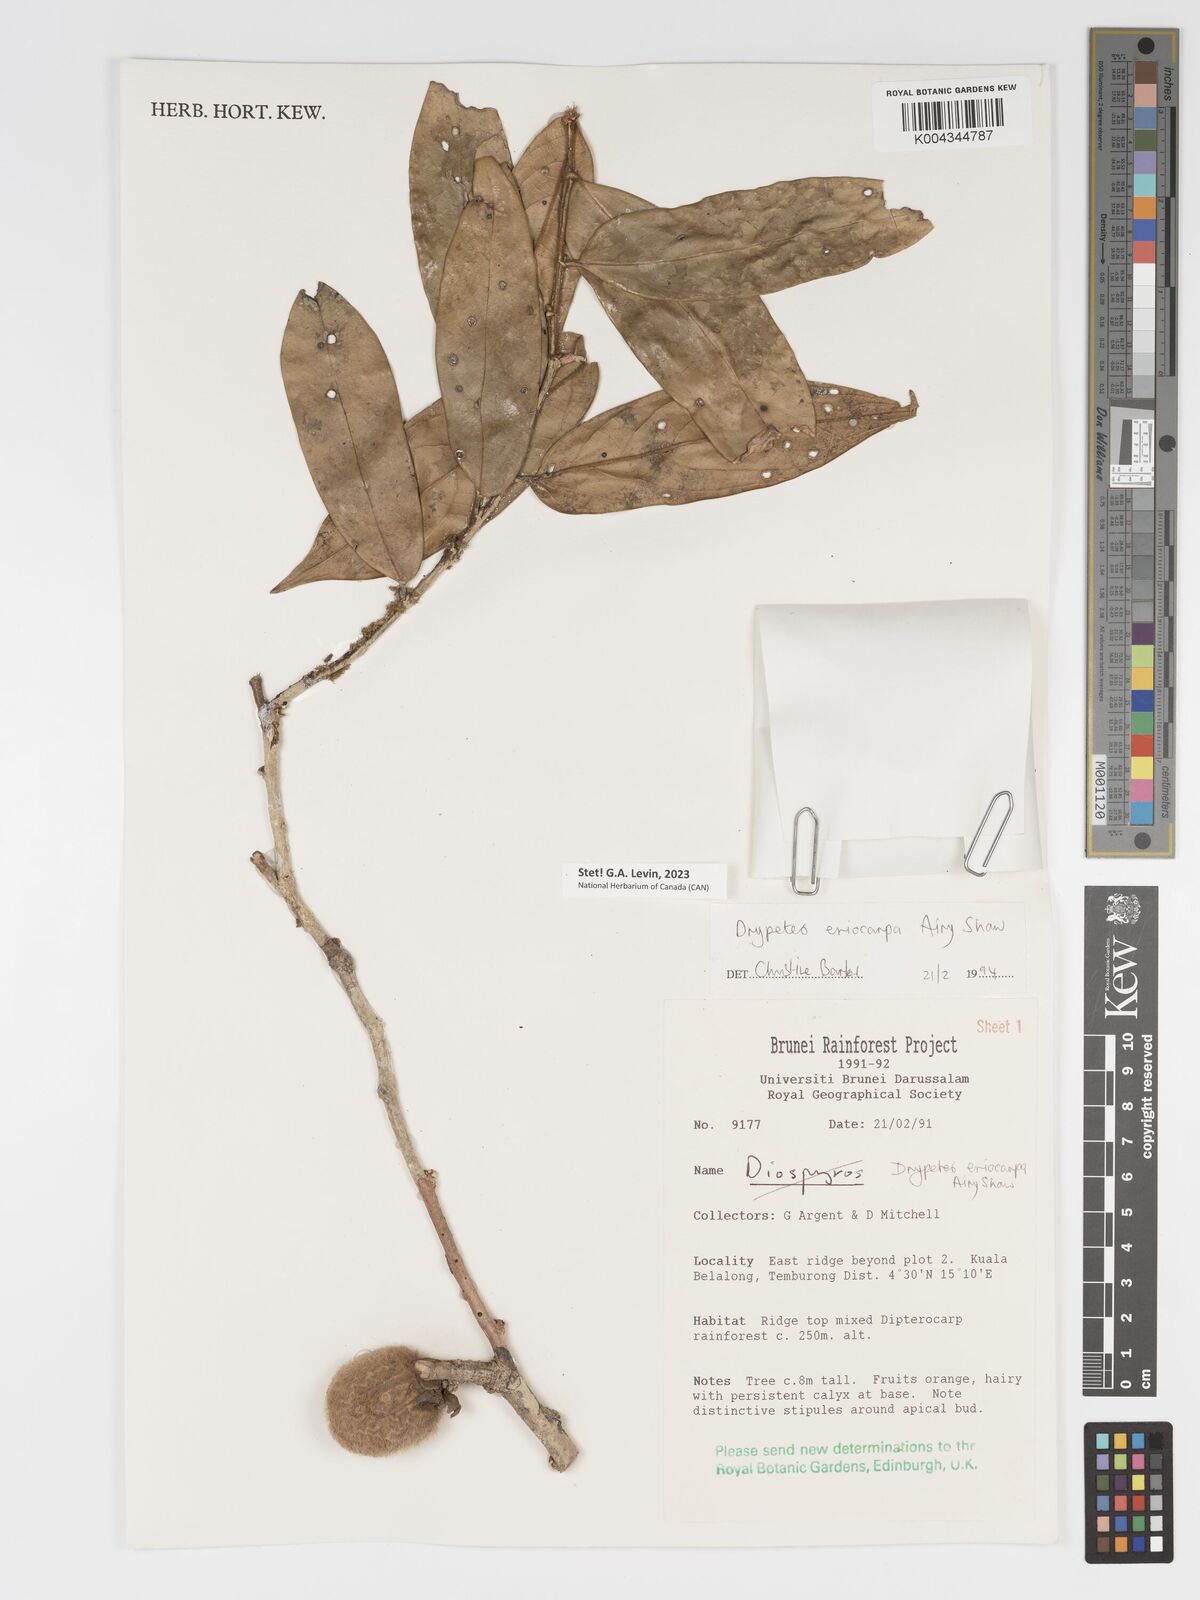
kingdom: Plantae
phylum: Tracheophyta
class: Magnoliopsida
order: Malpighiales
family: Putranjivaceae
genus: Drypetes
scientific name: Drypetes eriocarpa
